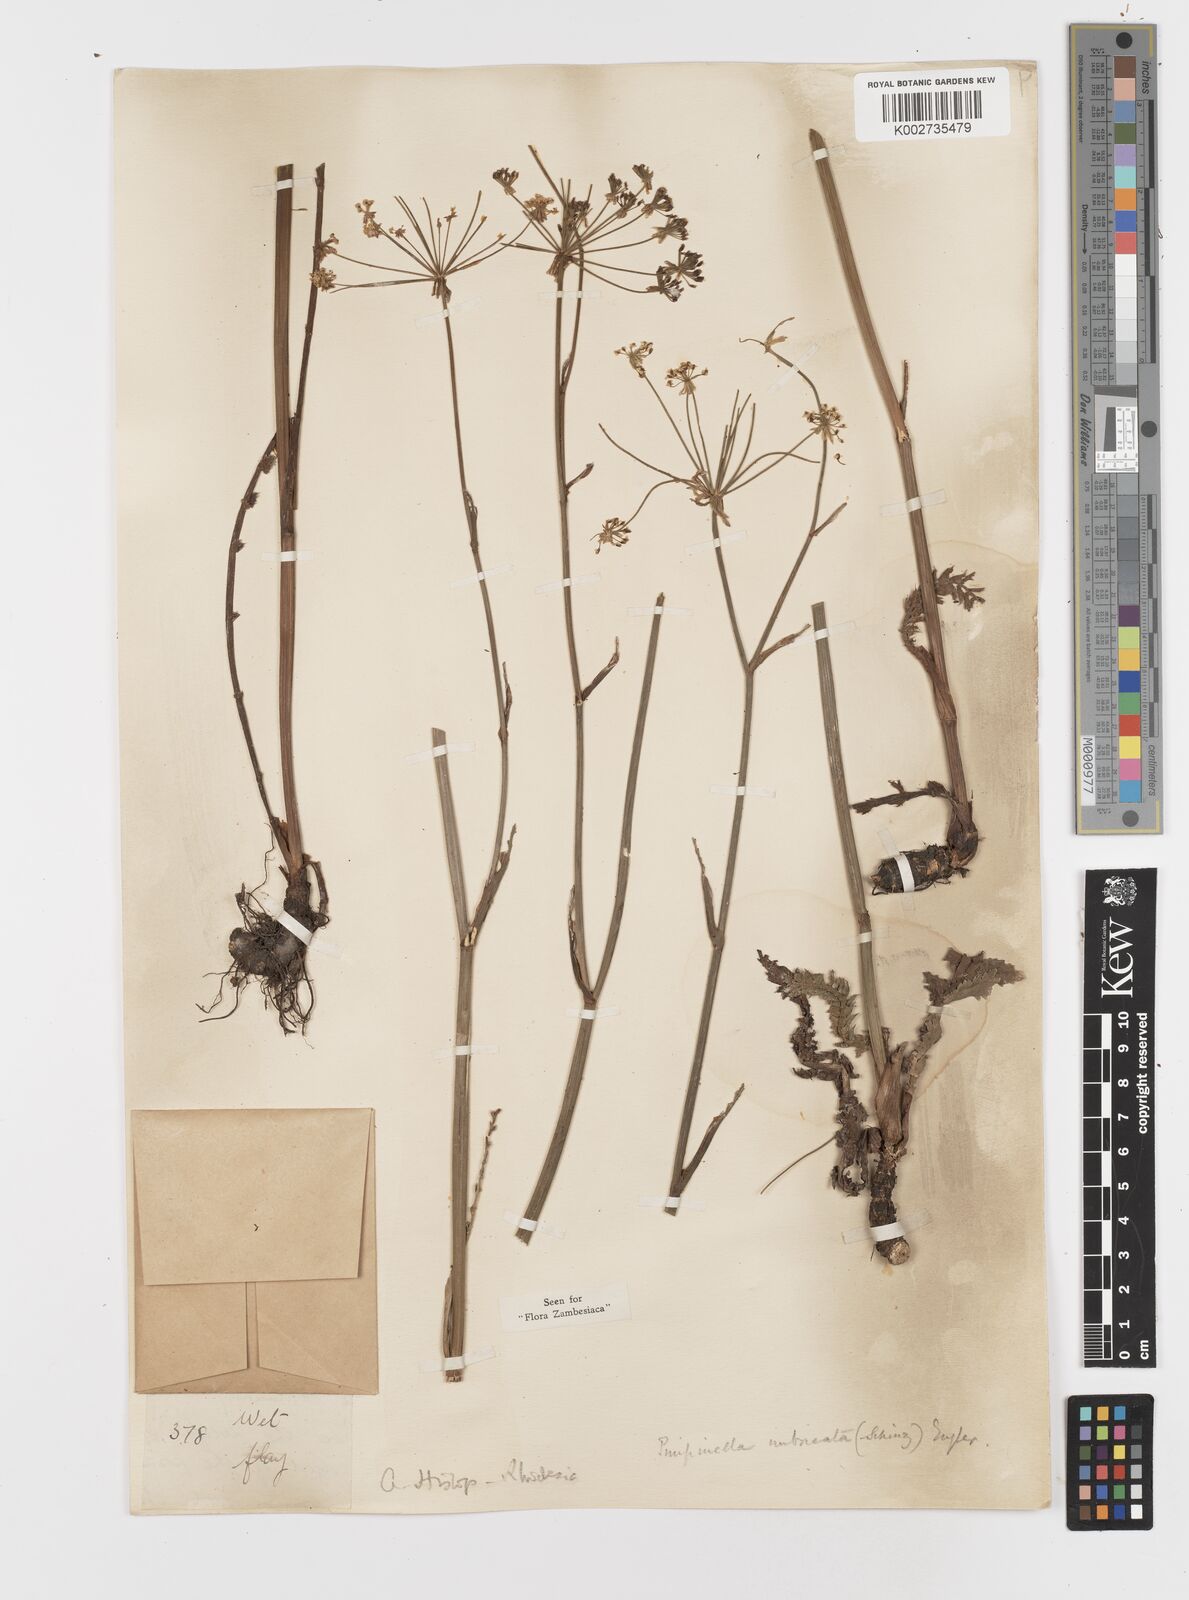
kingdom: Plantae
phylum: Tracheophyta
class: Magnoliopsida
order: Apiales
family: Apiaceae
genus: Berula
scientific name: Berula imbricata
